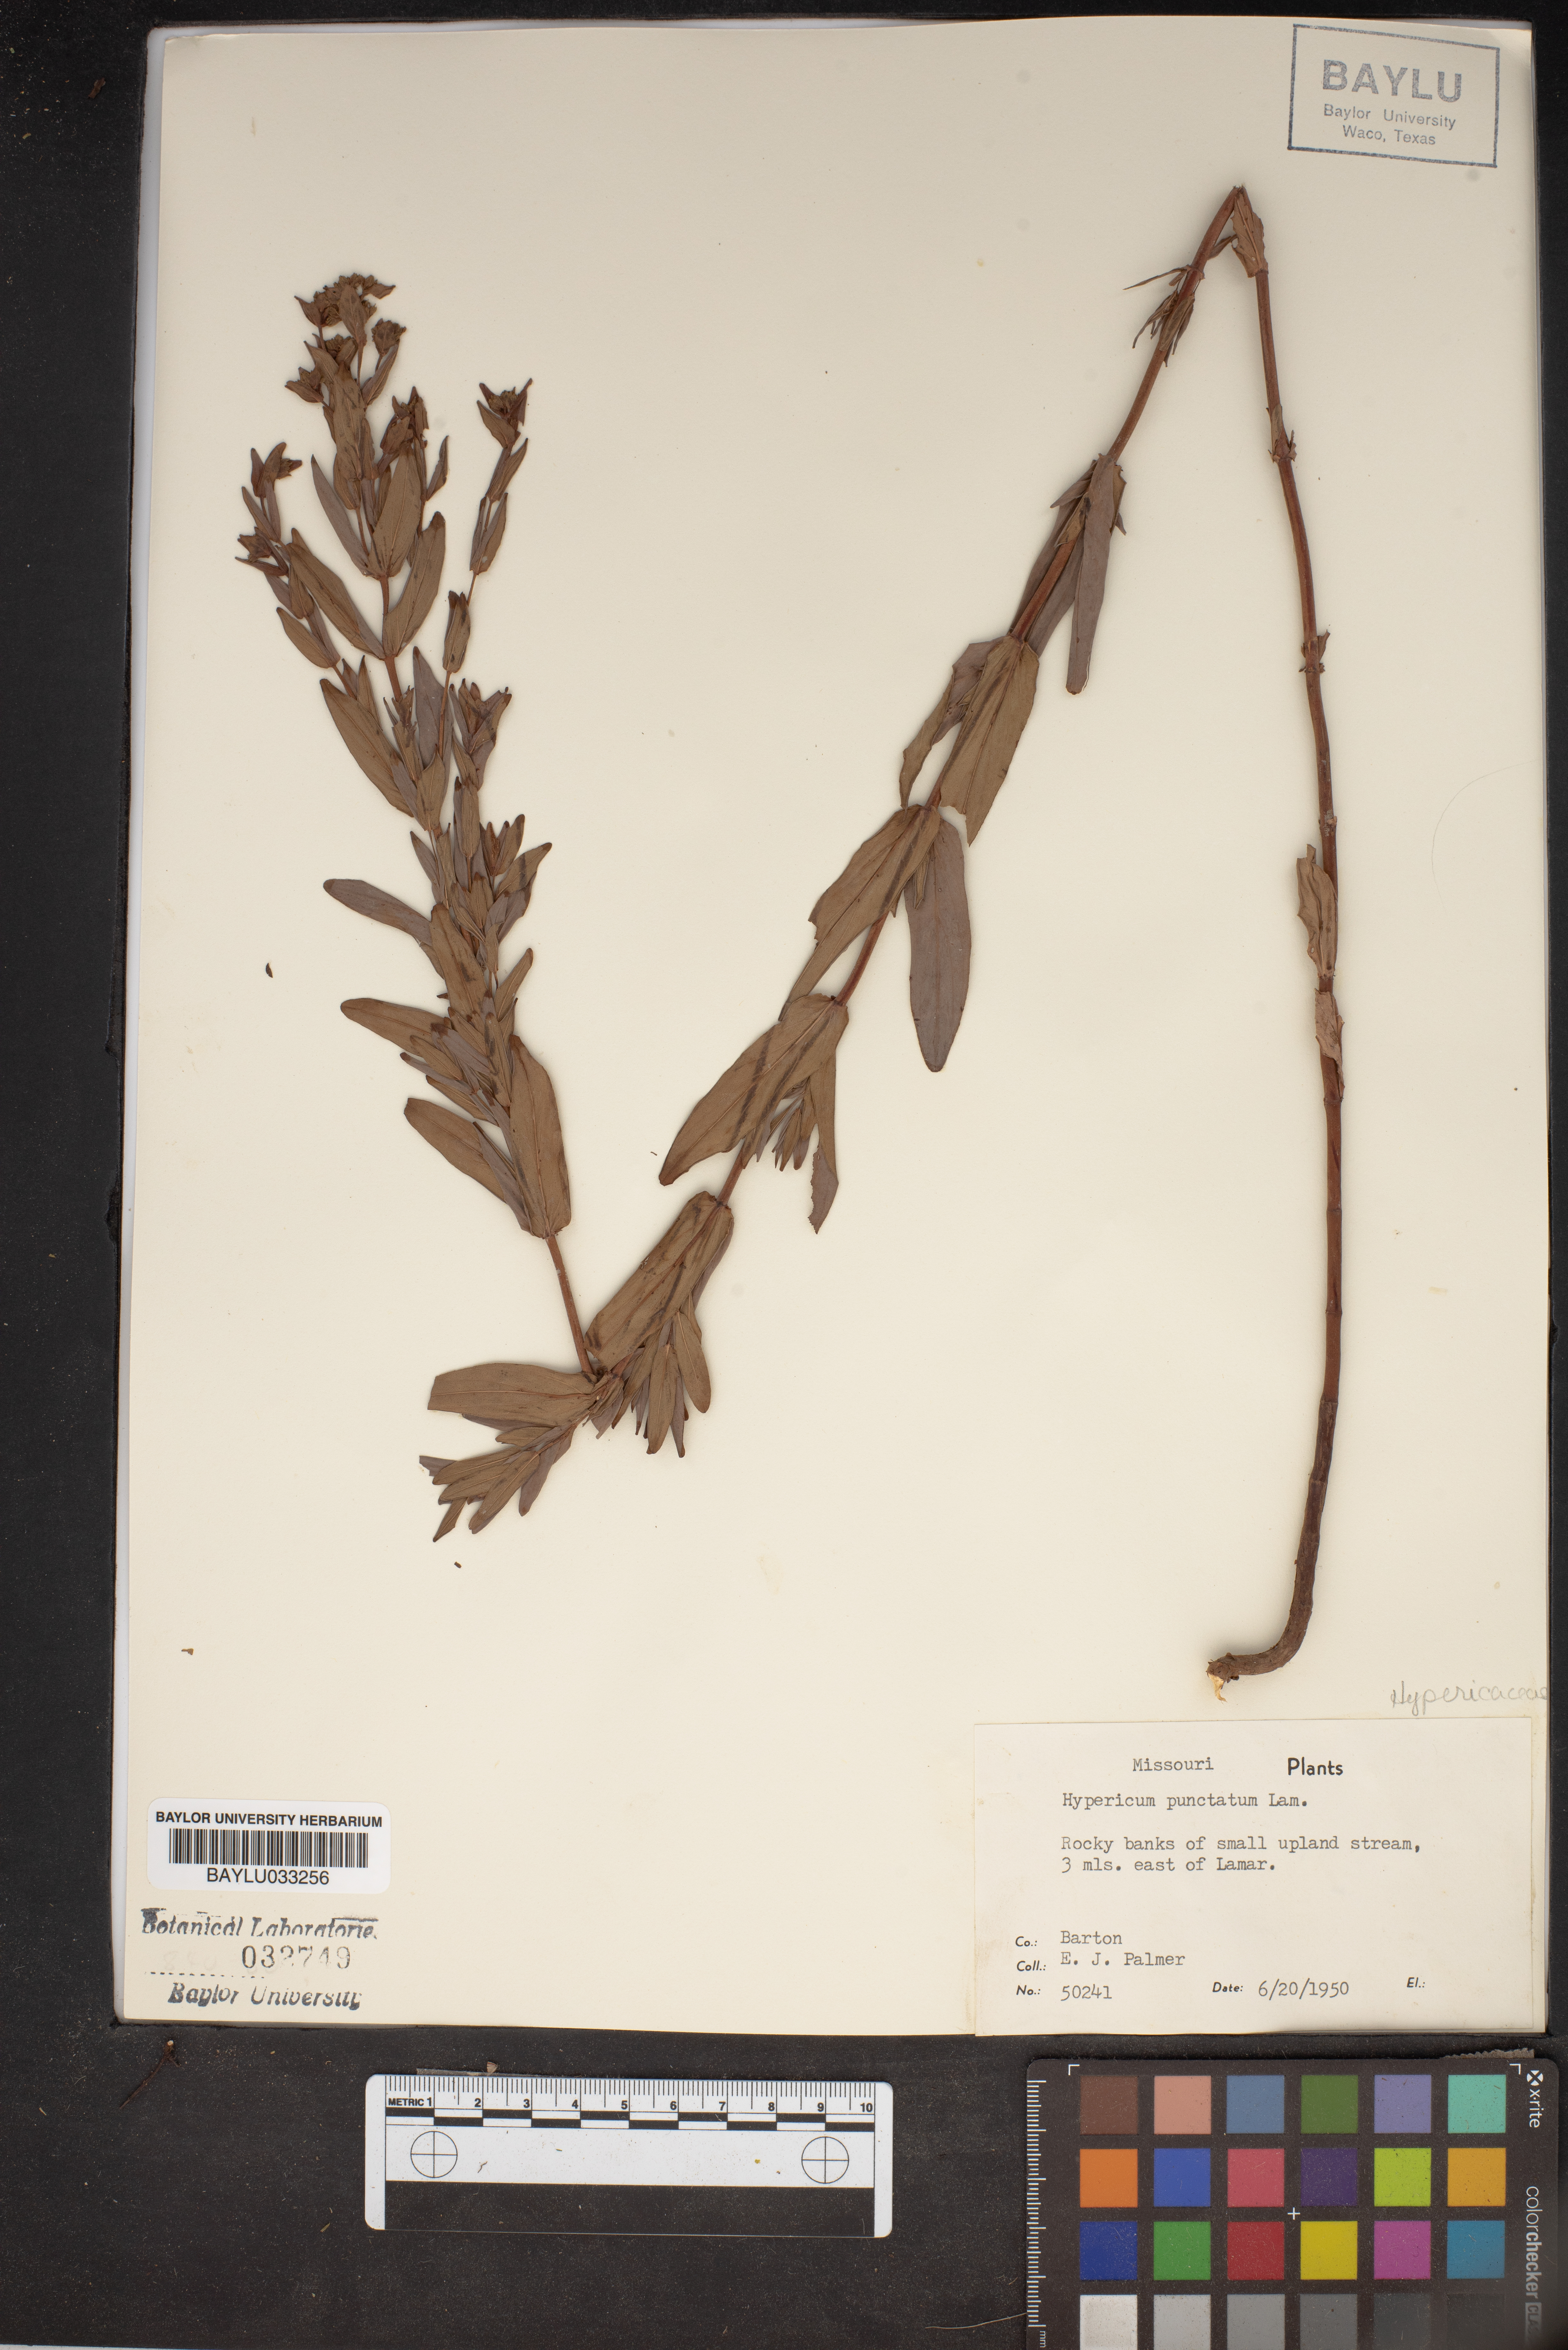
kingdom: Plantae
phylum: Tracheophyta
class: Magnoliopsida
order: Malpighiales
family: Hypericaceae
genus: Hypericum
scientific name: Hypericum punctatum
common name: Spotted st. john's-wort
